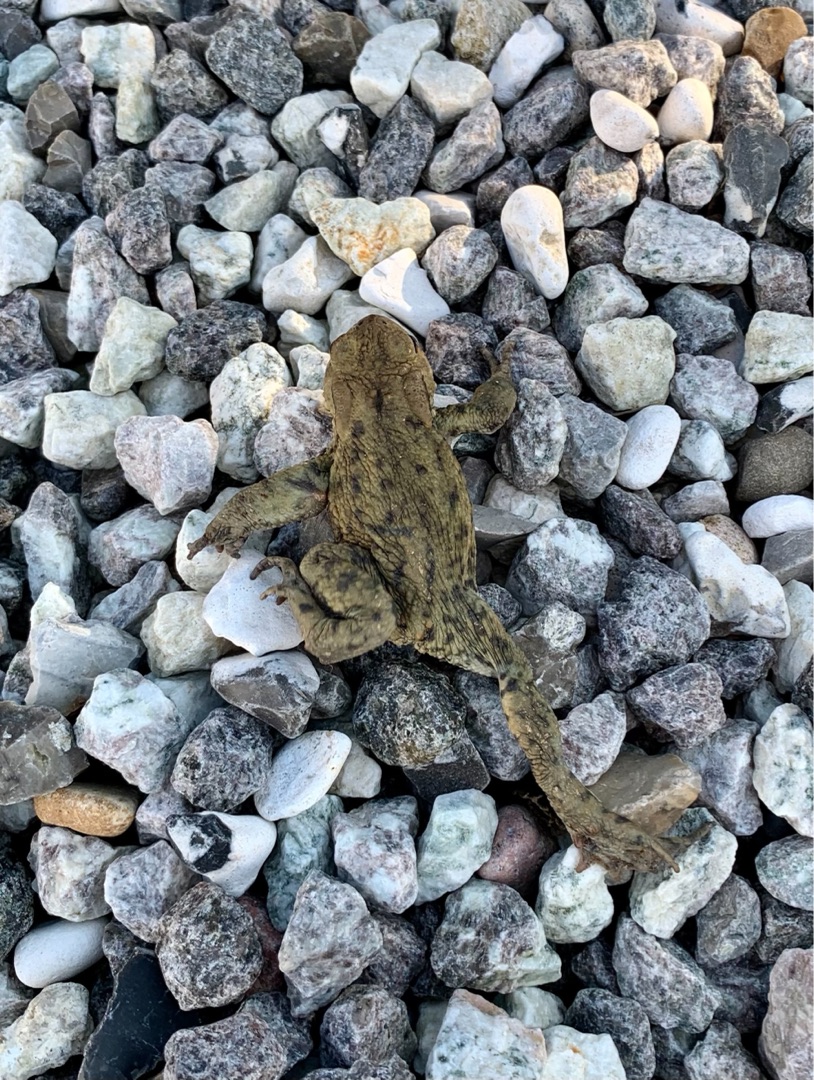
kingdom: Animalia
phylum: Chordata
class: Amphibia
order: Anura
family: Bufonidae
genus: Bufo
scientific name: Bufo bufo
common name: Skrubtudse
